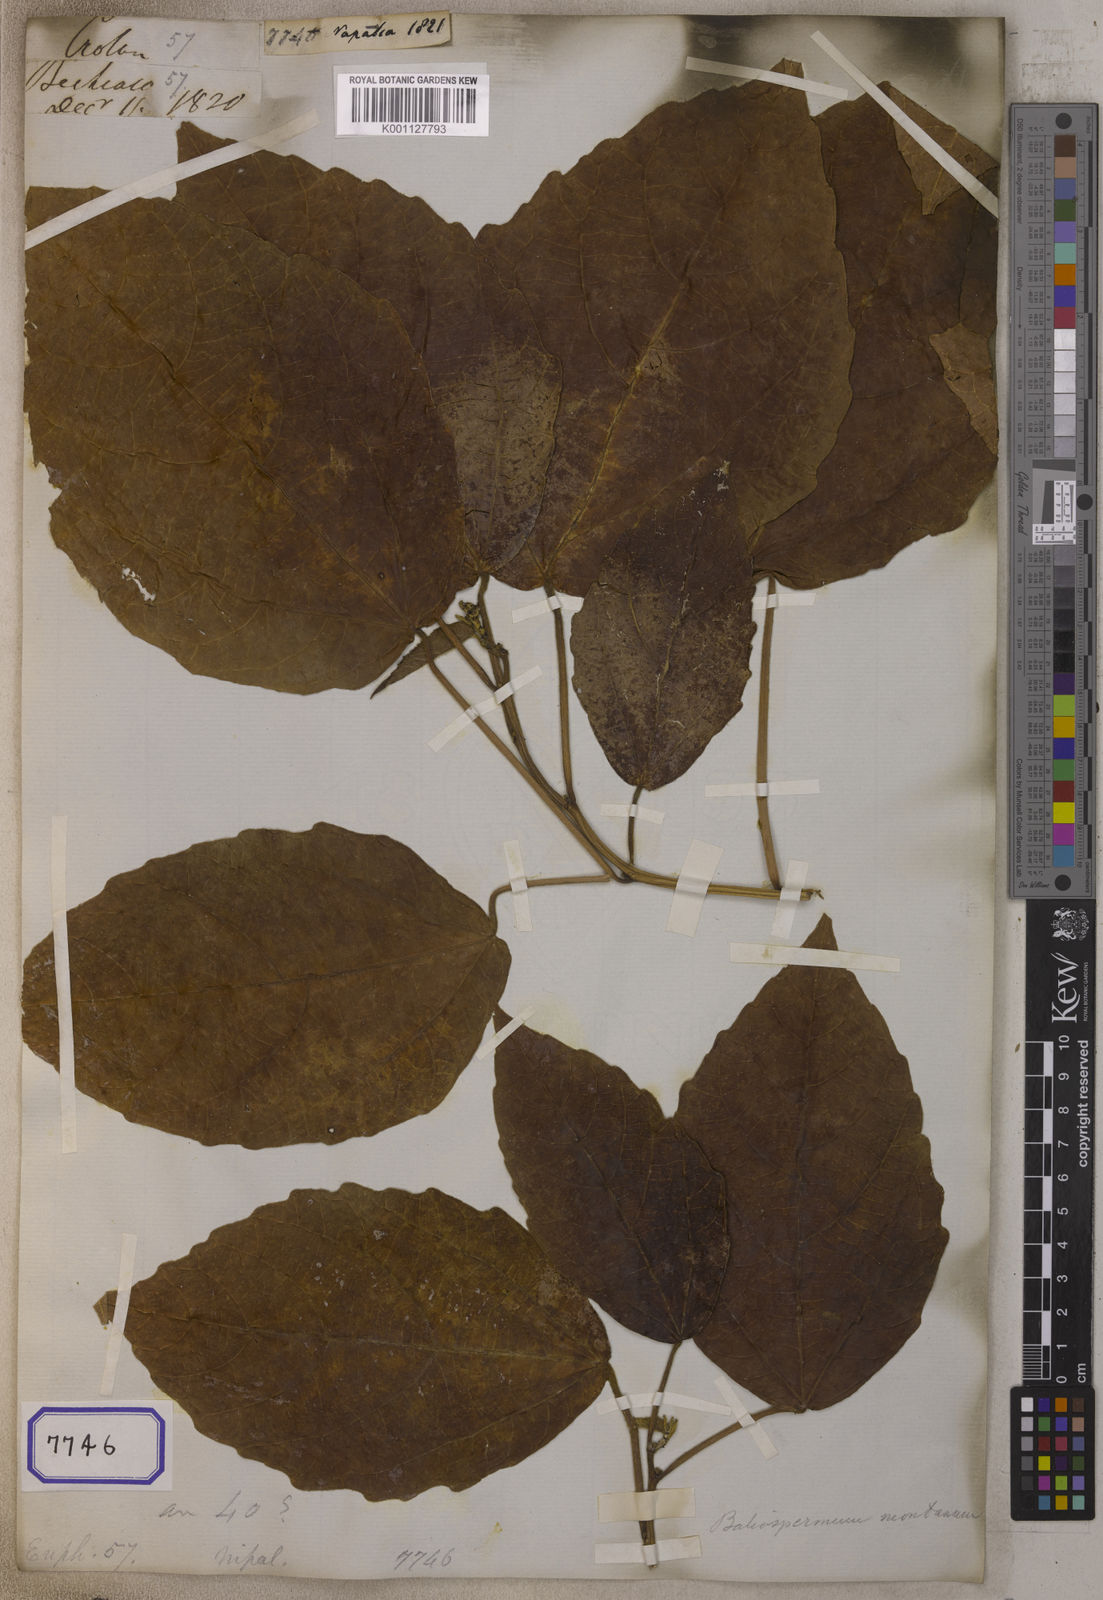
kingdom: Plantae
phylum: Tracheophyta
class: Magnoliopsida
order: Malpighiales
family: Euphorbiaceae
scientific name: Euphorbiaceae
